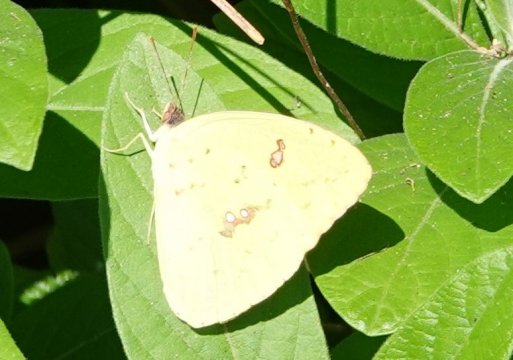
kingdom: Animalia
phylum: Arthropoda
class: Insecta
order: Lepidoptera
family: Pieridae
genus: Phoebis
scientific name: Phoebis sennae
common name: Cloudless Sulphur
